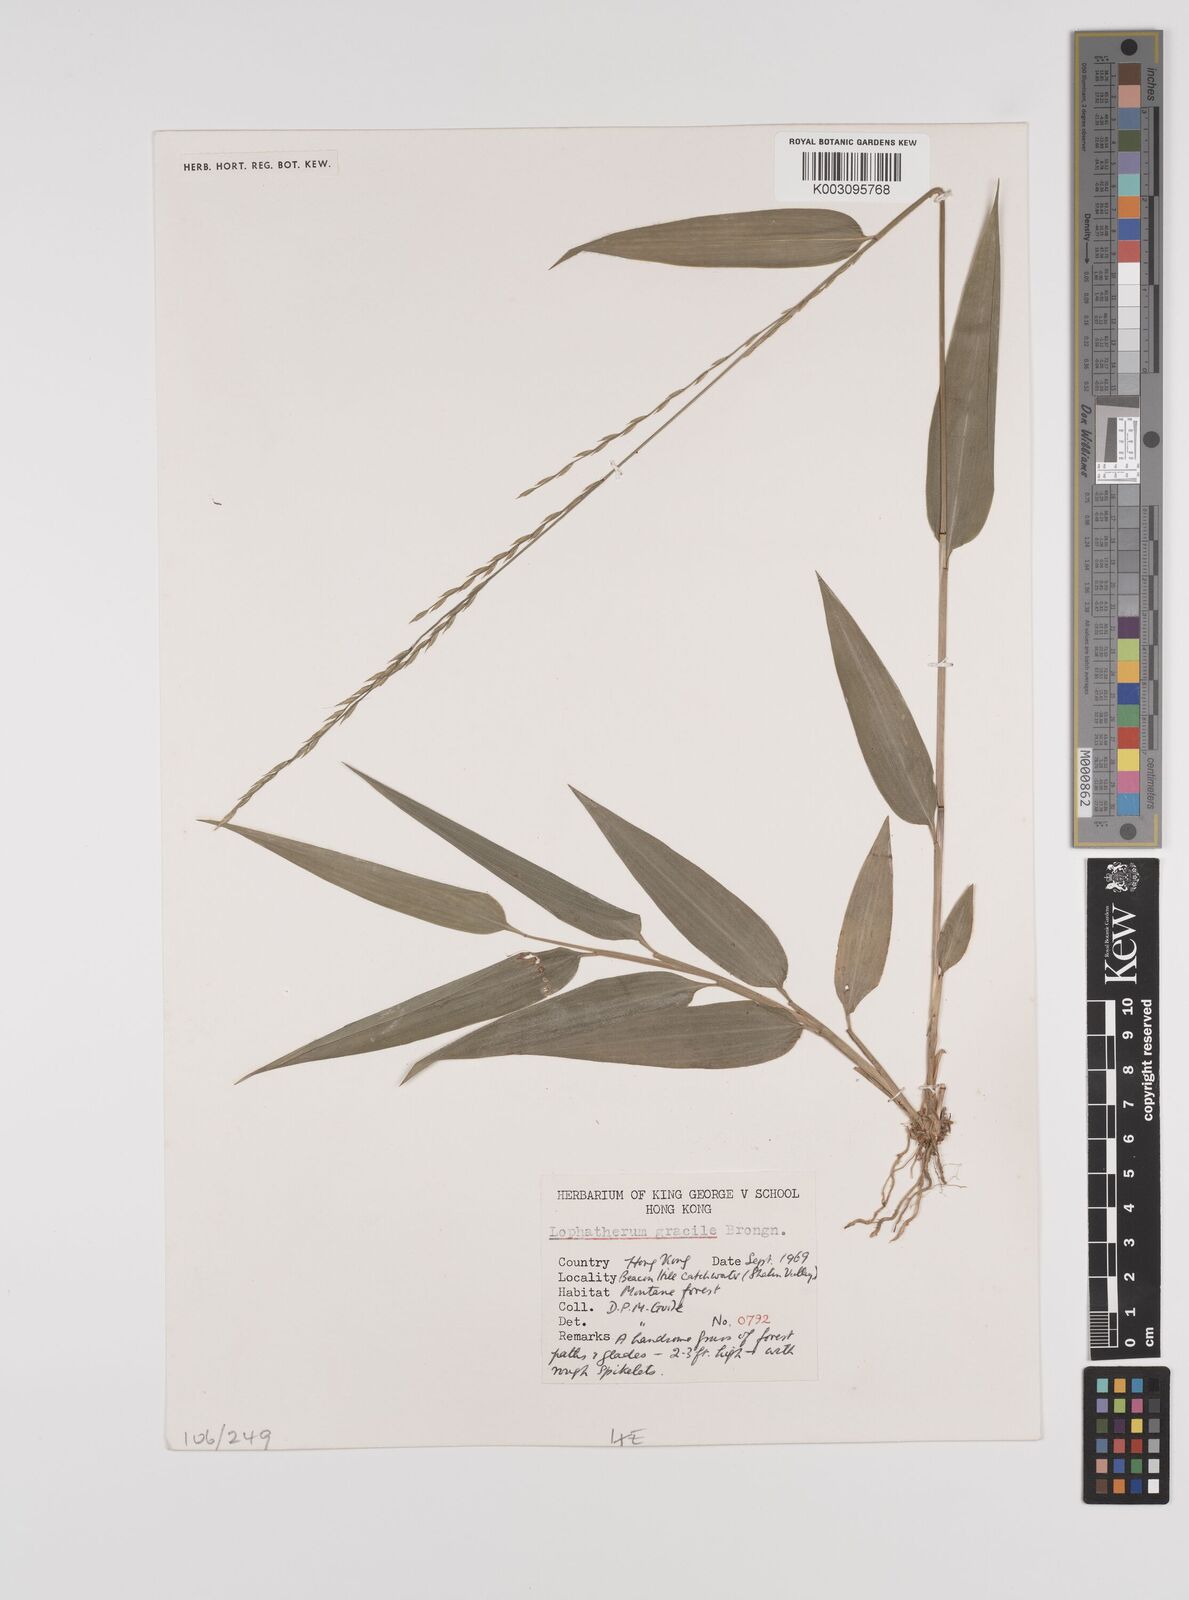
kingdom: Plantae
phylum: Tracheophyta
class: Liliopsida
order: Poales
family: Poaceae
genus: Lophatherum
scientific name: Lophatherum gracile
